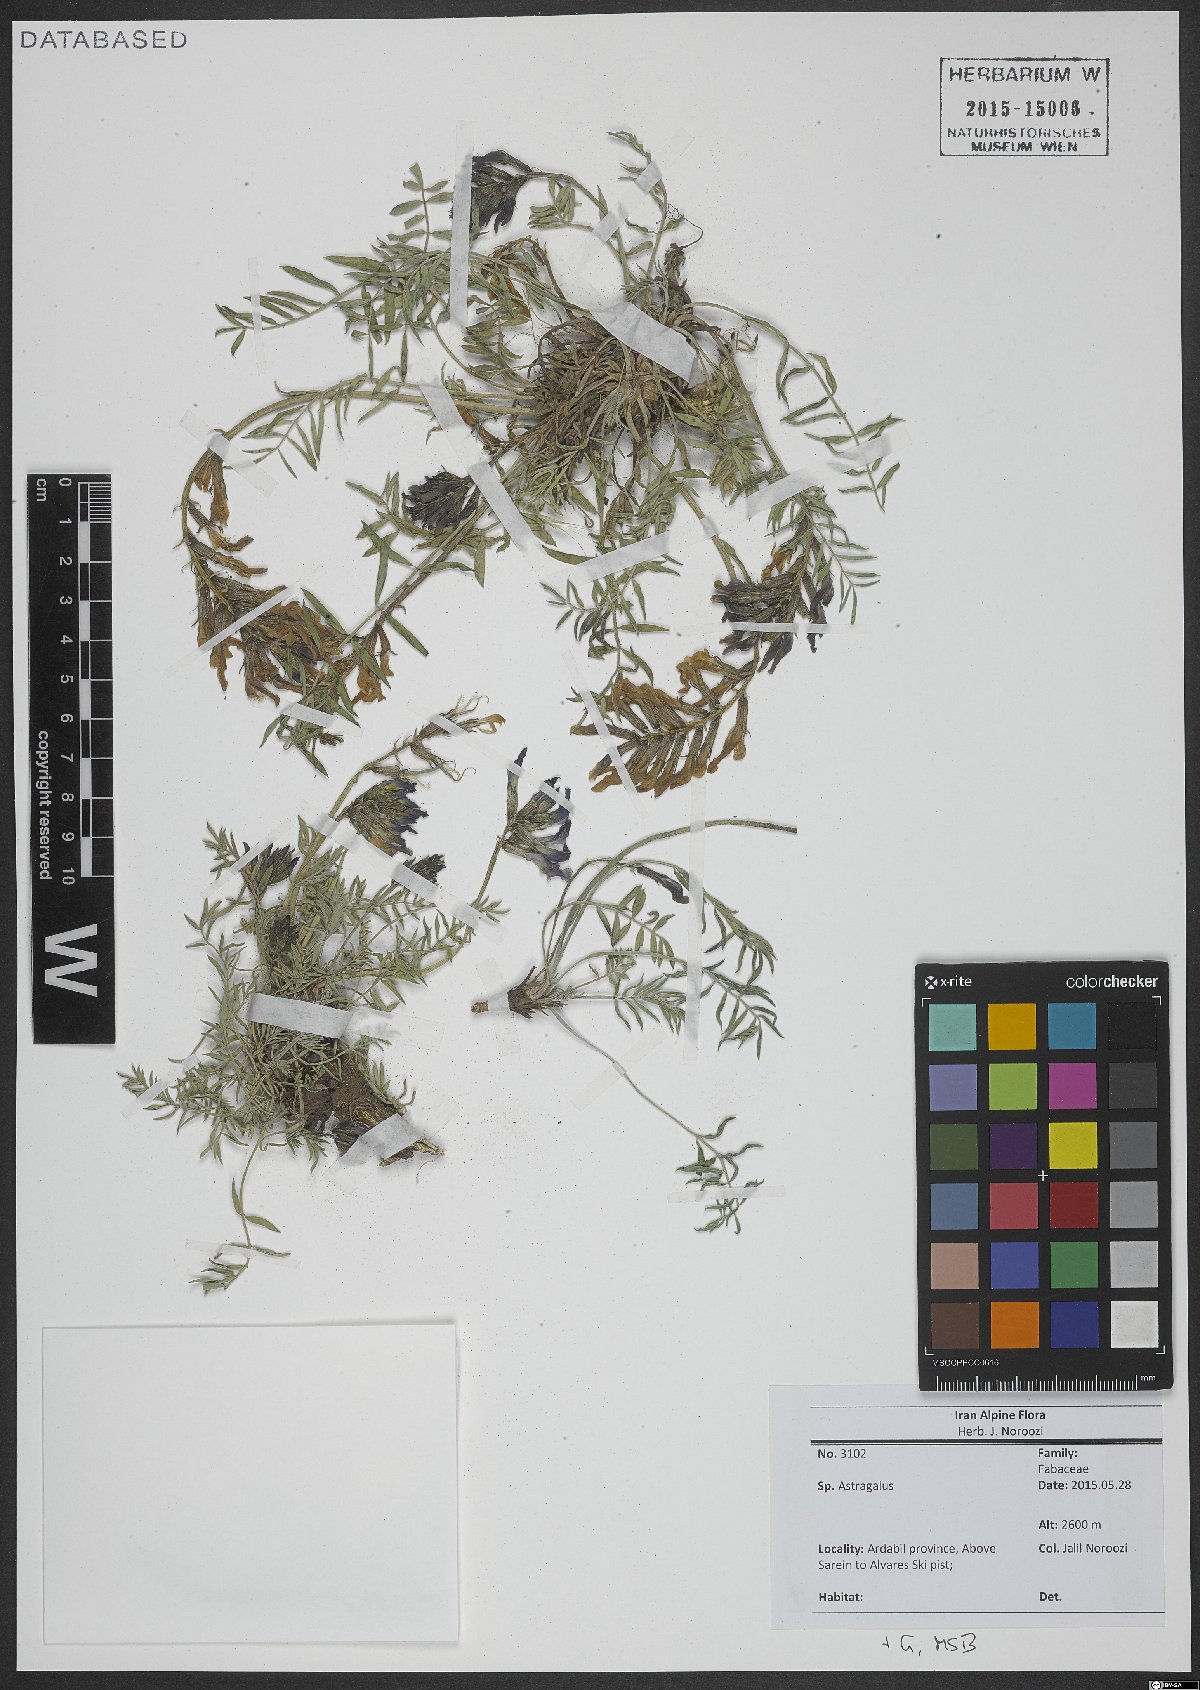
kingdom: Plantae
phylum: Tracheophyta
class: Magnoliopsida
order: Fabales
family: Fabaceae
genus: Astragalus
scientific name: Astragalus
